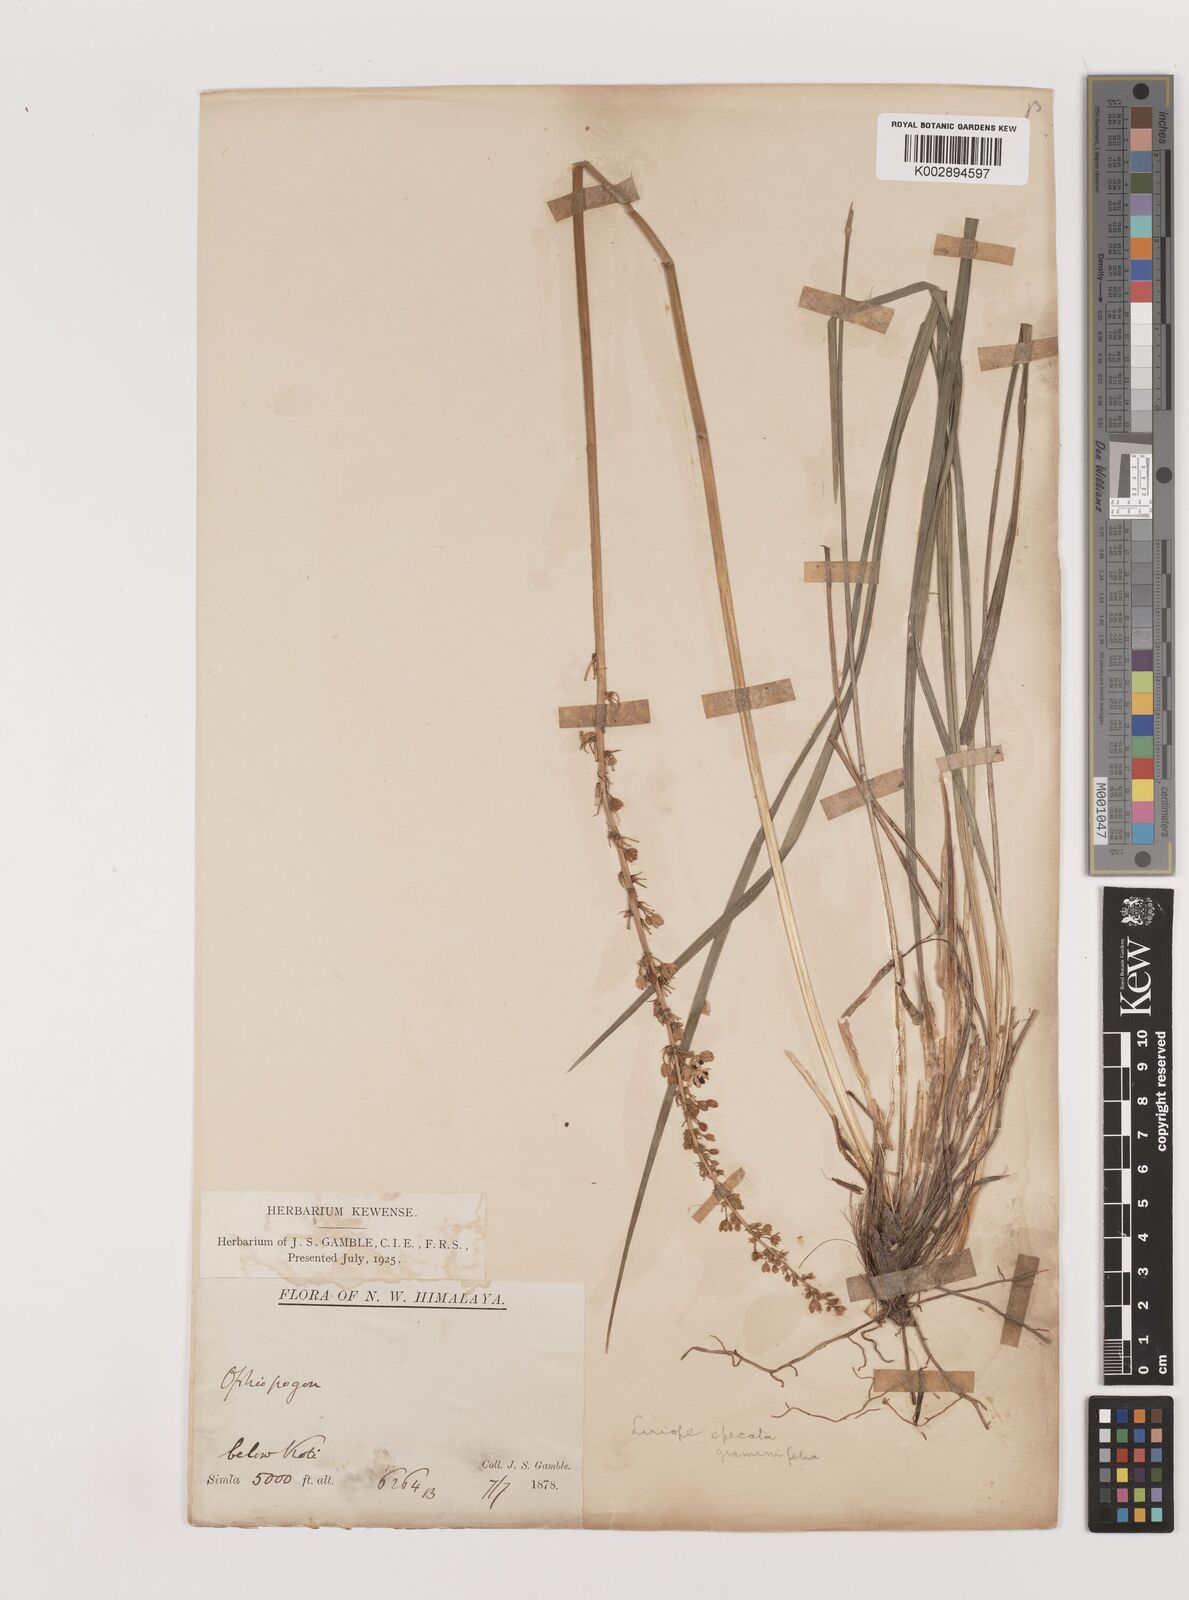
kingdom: Plantae
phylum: Tracheophyta
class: Liliopsida
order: Asparagales
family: Asparagaceae
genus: Liriope
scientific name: Liriope
